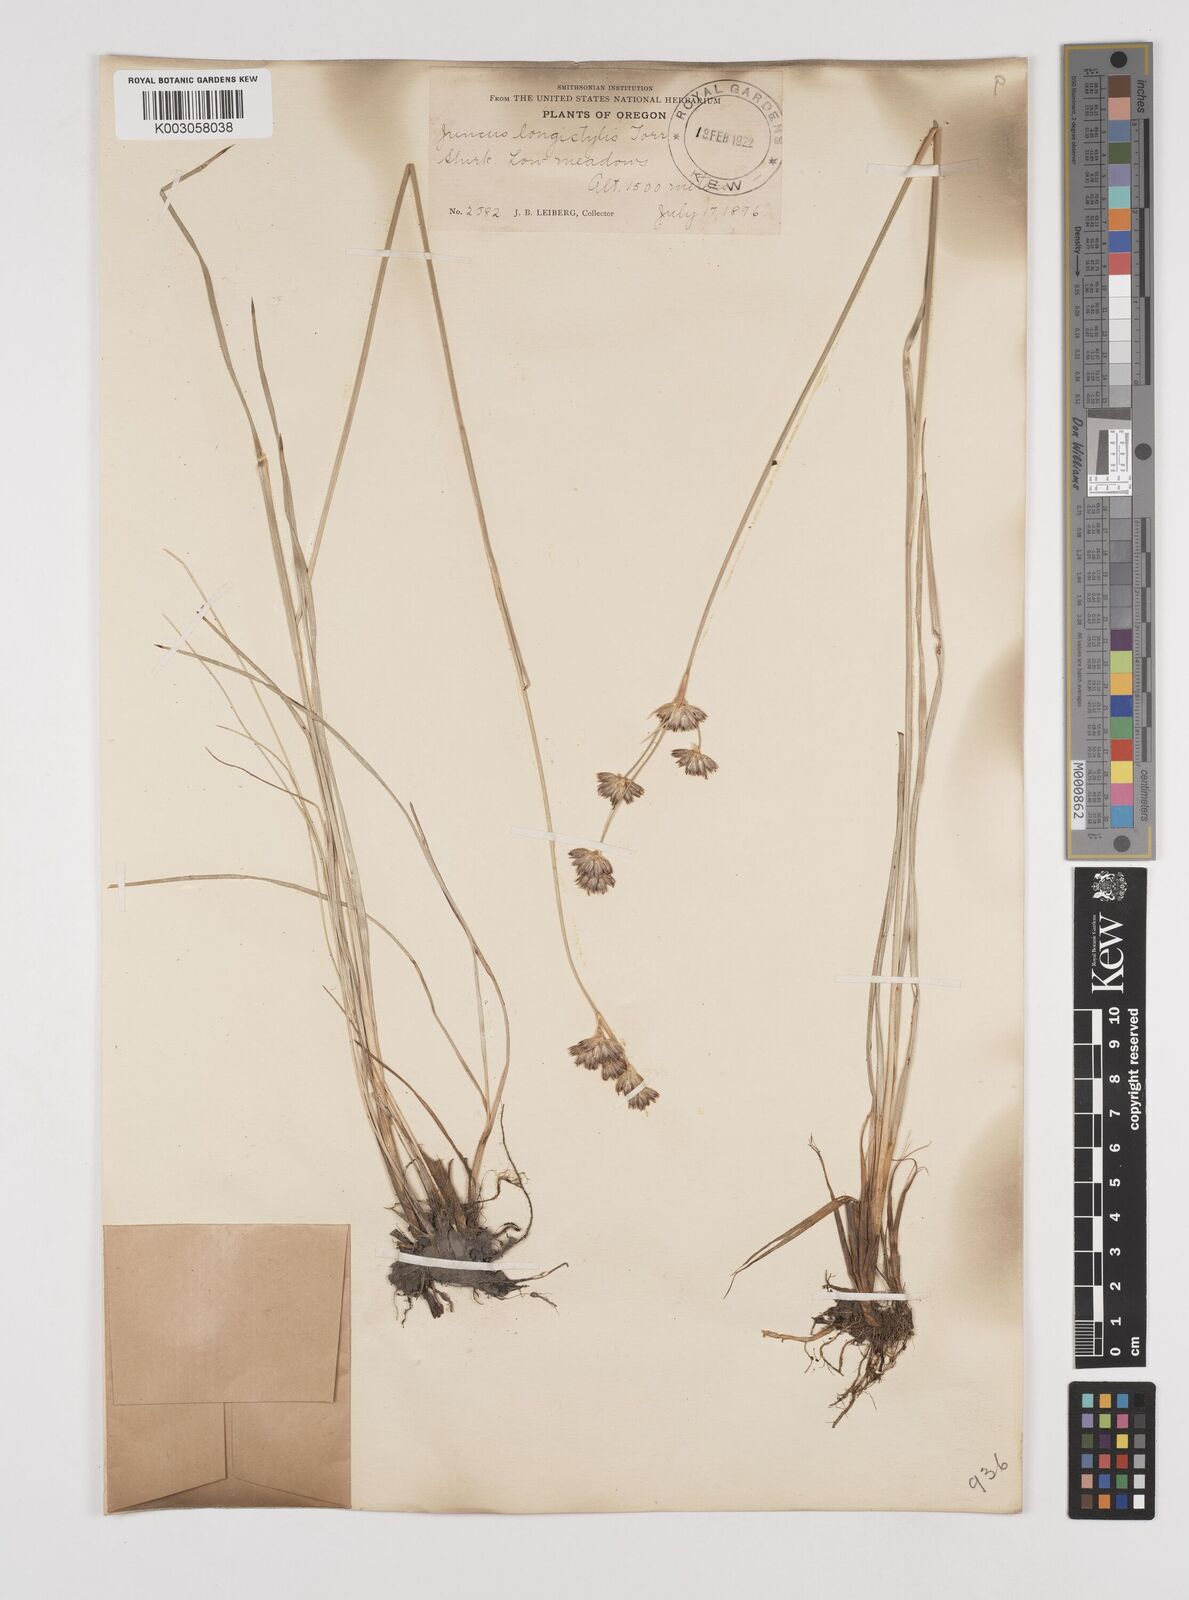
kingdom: Plantae
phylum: Tracheophyta
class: Liliopsida
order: Poales
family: Juncaceae
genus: Juncus
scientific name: Juncus longistylis
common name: Long-style rush
